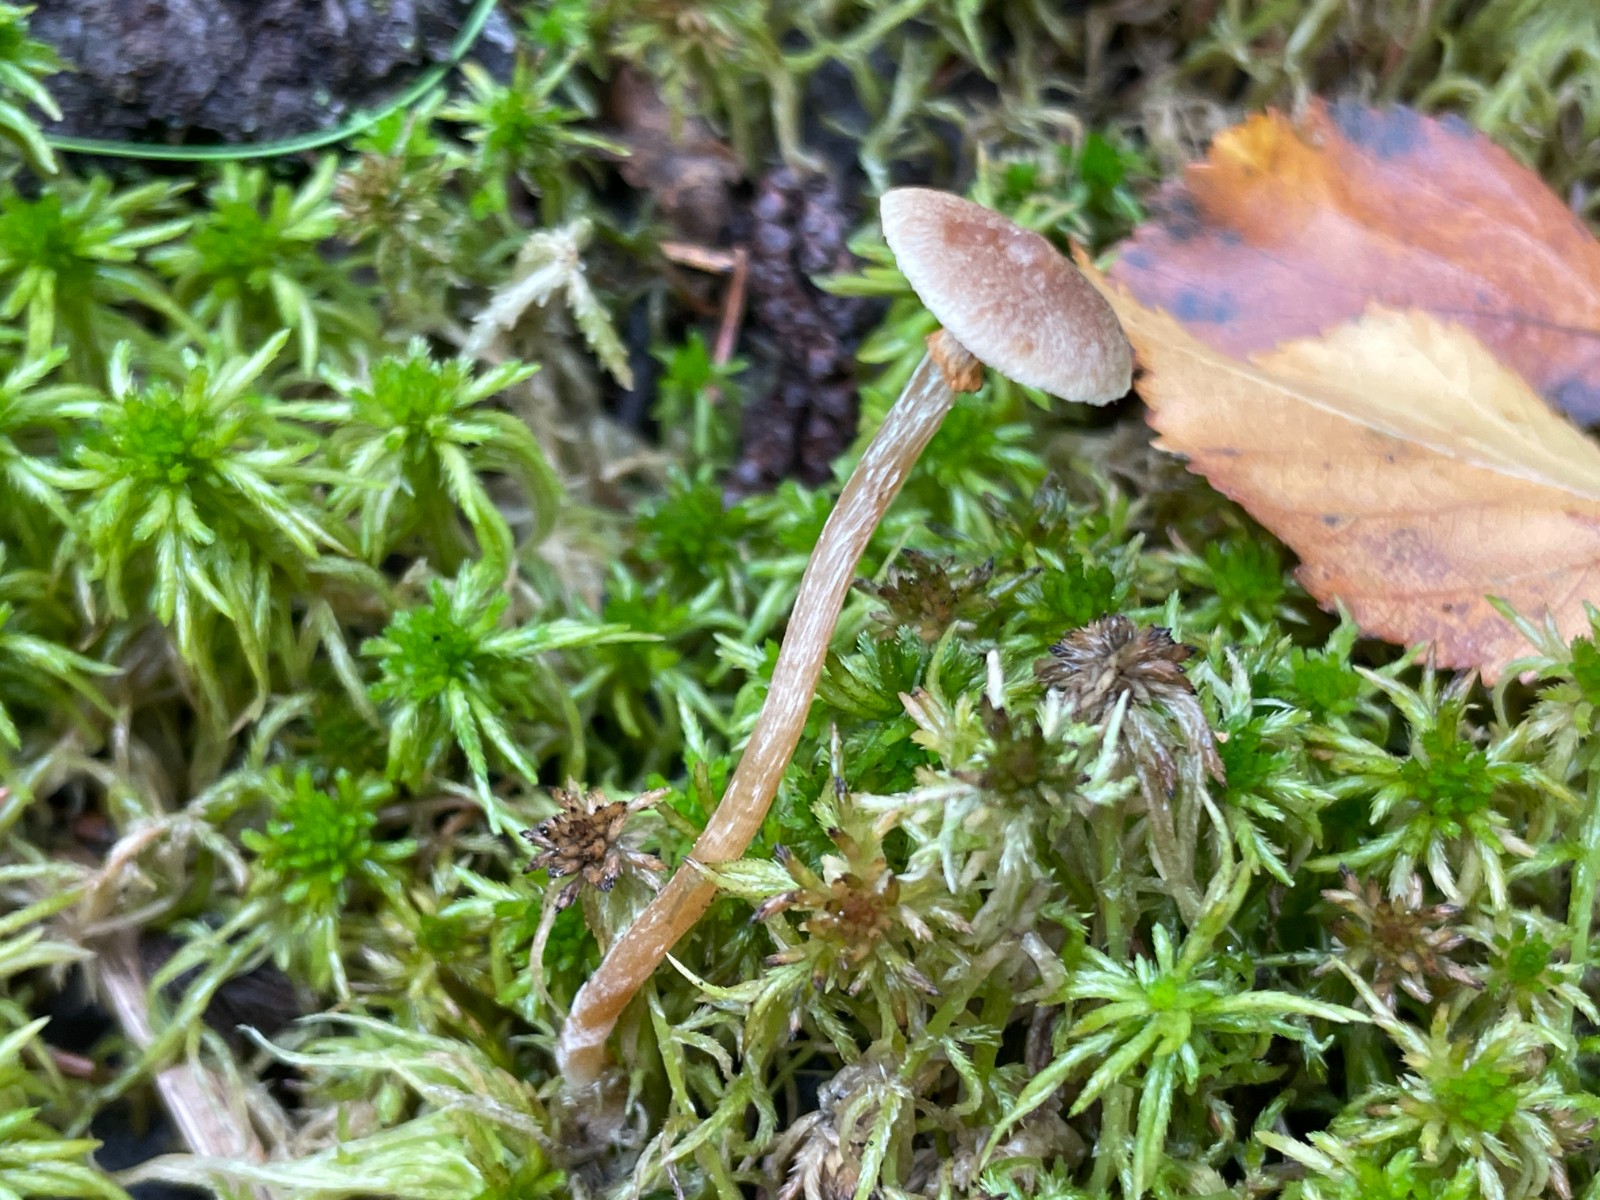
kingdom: Fungi
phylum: Basidiomycota
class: Agaricomycetes
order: Agaricales
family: Hymenogastraceae
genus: Galerina
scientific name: Galerina paludosa
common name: mose-hjelmhat
